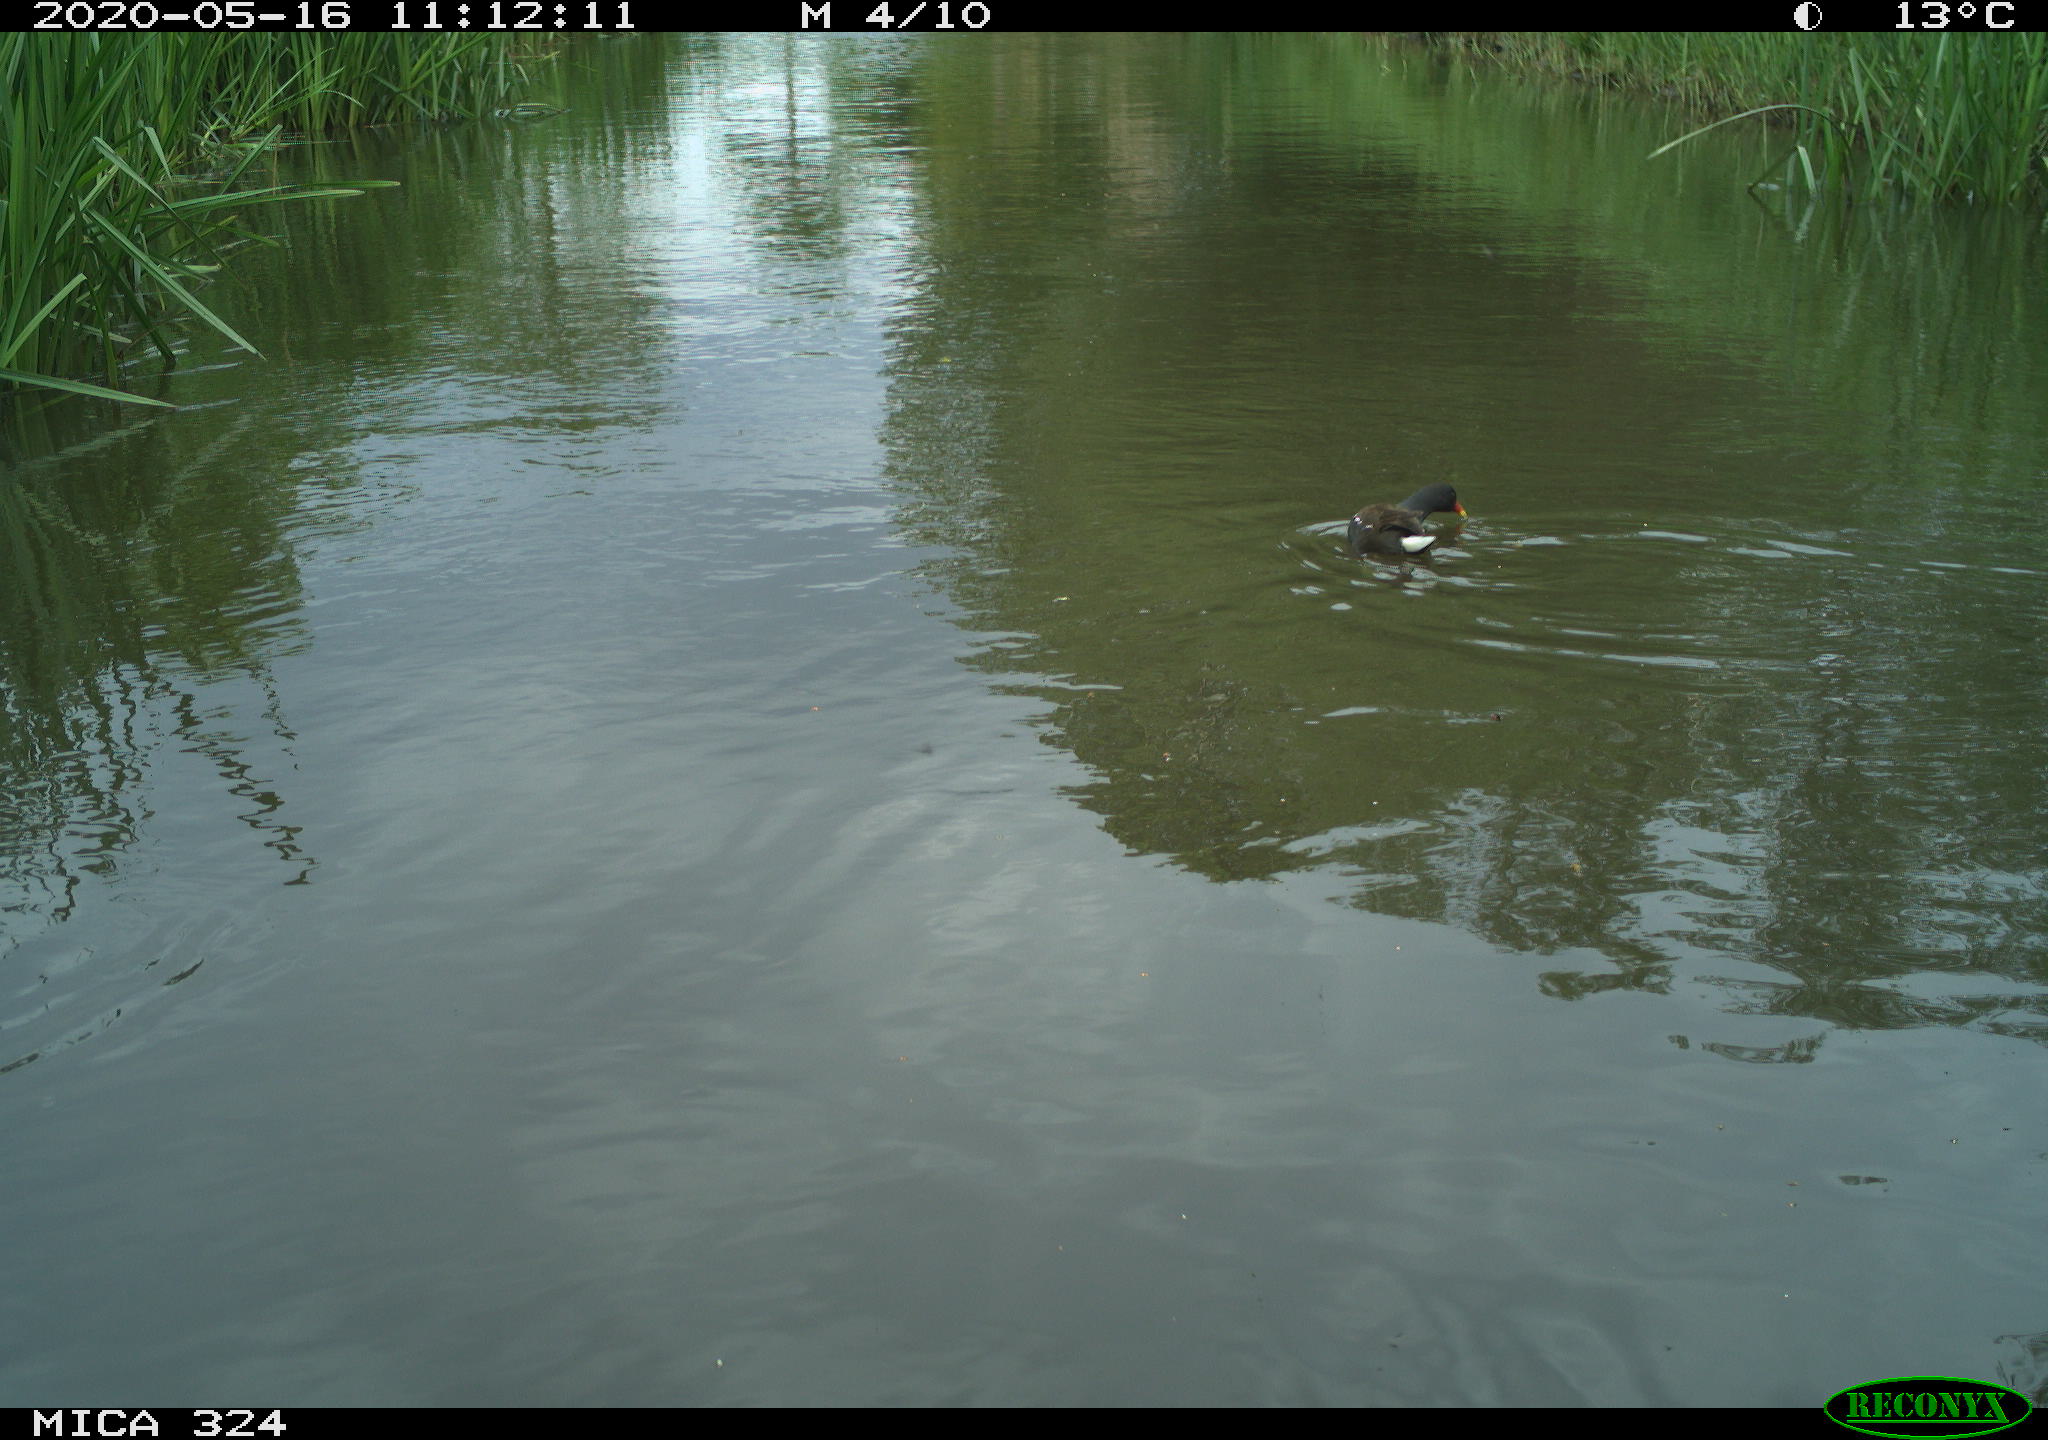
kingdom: Animalia
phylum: Chordata
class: Aves
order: Gruiformes
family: Rallidae
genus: Gallinula
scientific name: Gallinula chloropus
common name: Common moorhen
